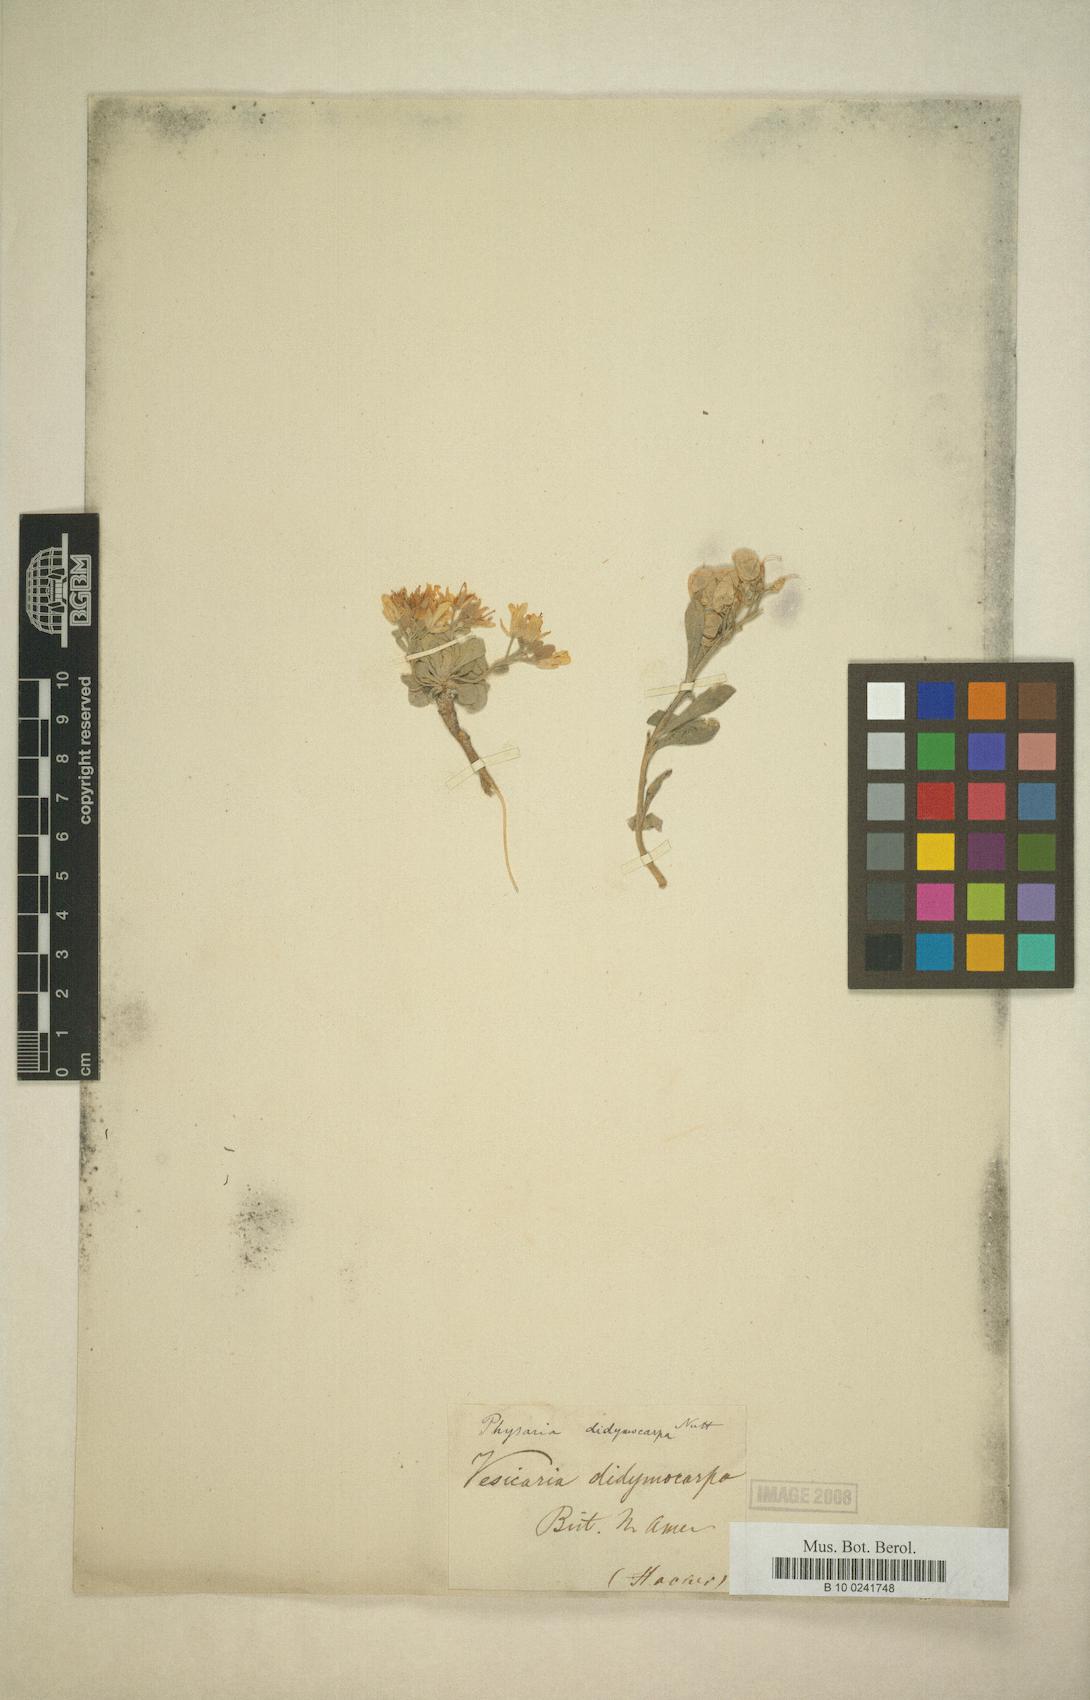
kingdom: Plantae
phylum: Tracheophyta
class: Magnoliopsida
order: Brassicales
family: Brassicaceae
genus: Physaria
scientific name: Physaria didymocarpa
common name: Common twinpod
